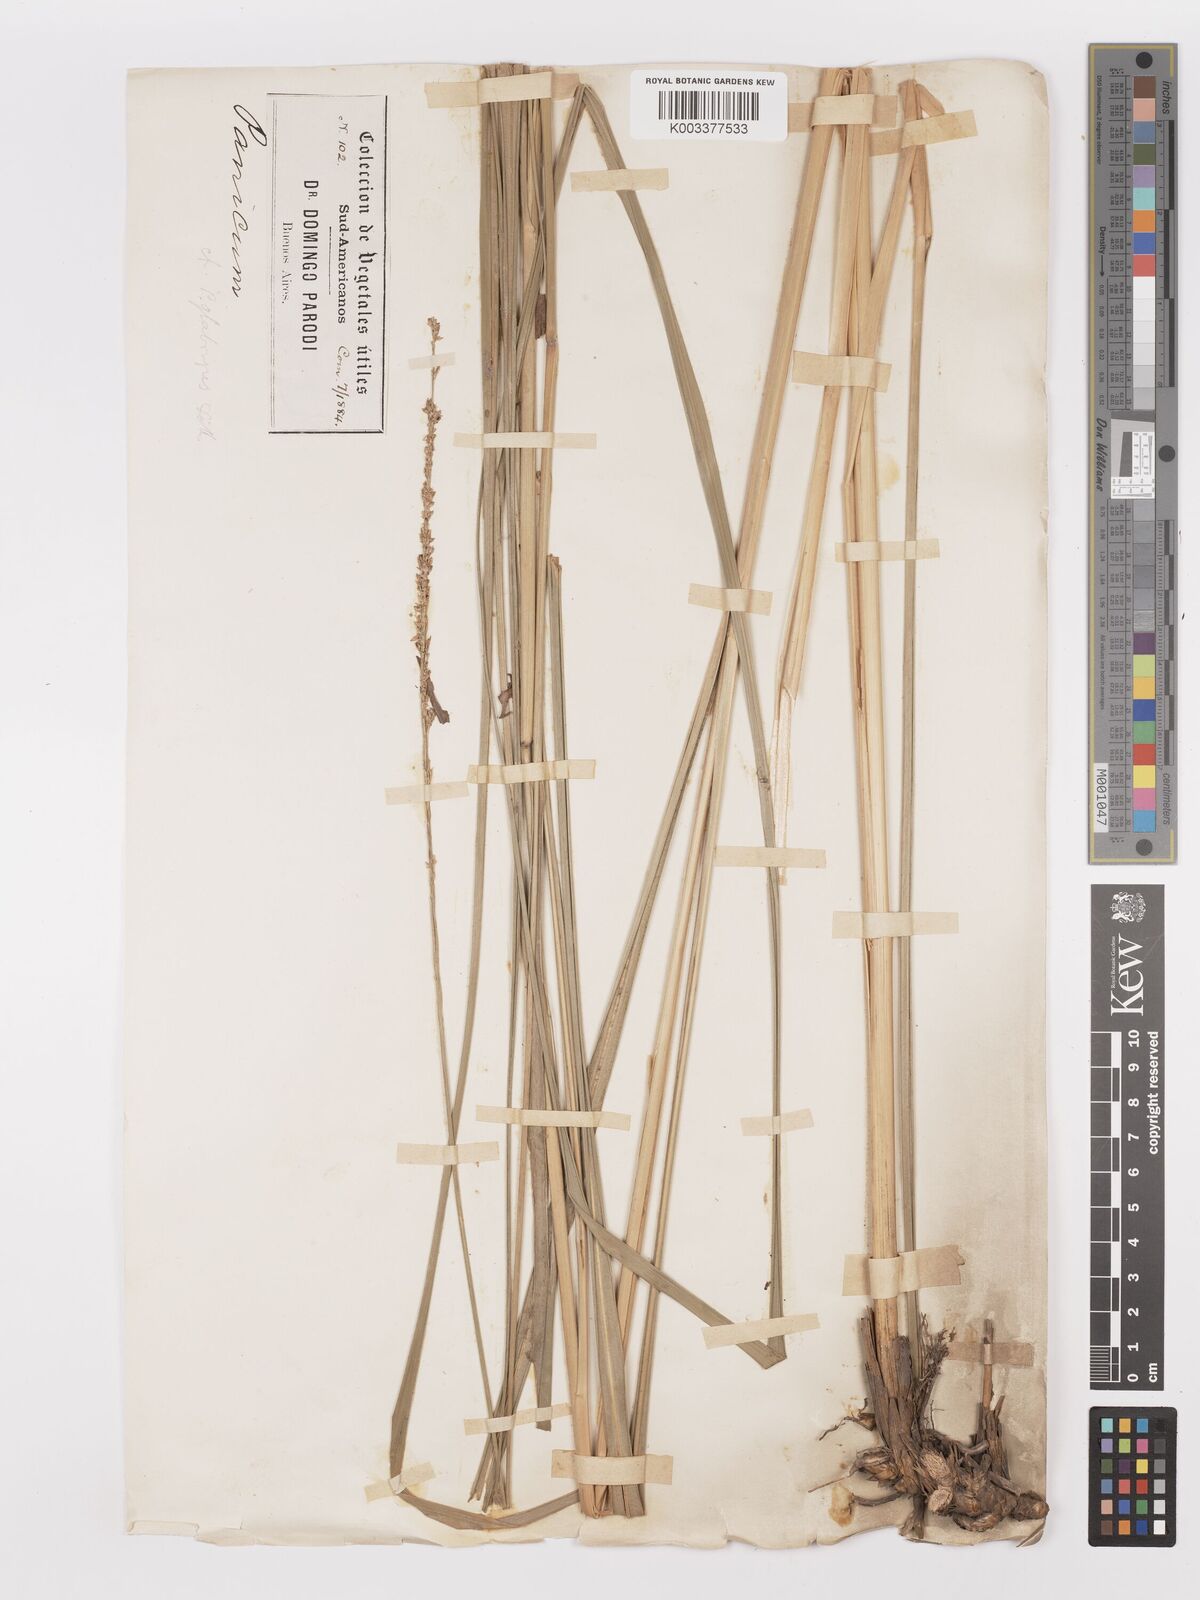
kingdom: Plantae
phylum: Tracheophyta
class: Liliopsida
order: Poales
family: Poaceae
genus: Panicum
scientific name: Panicum glabripes
